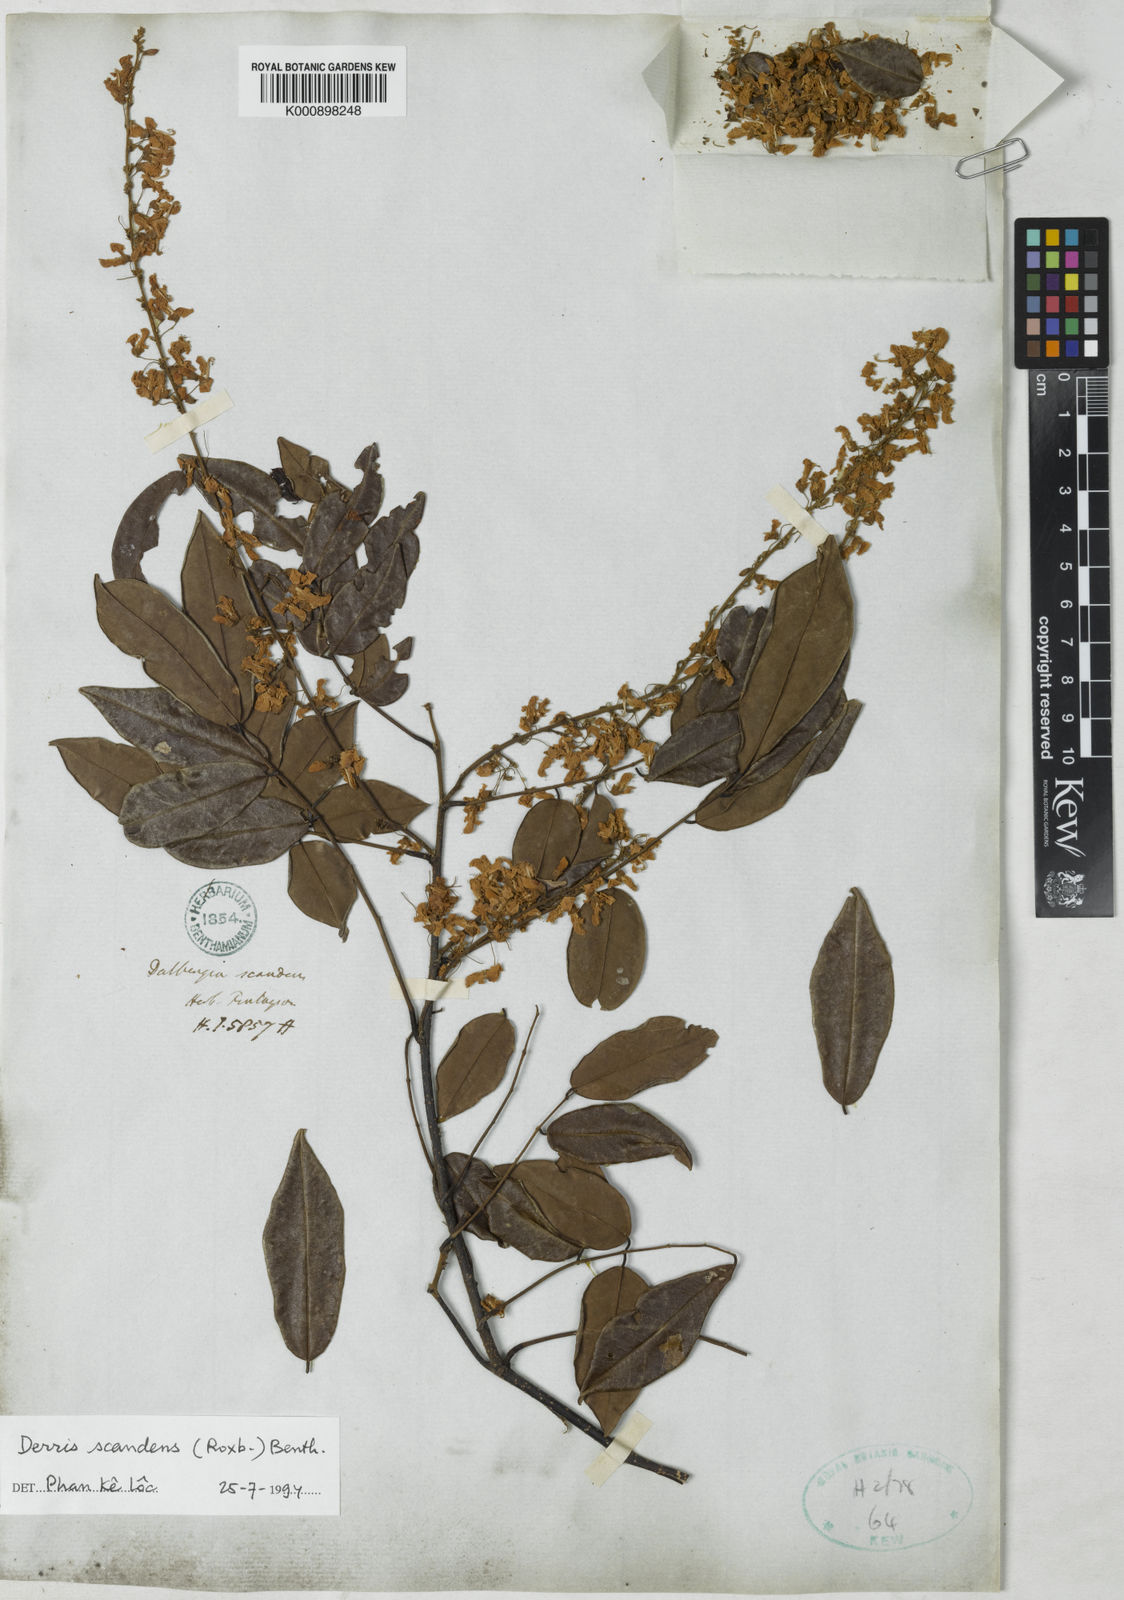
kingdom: Plantae
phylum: Tracheophyta
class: Magnoliopsida
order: Fabales
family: Fabaceae
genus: Brachypterum
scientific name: Brachypterum scandens
